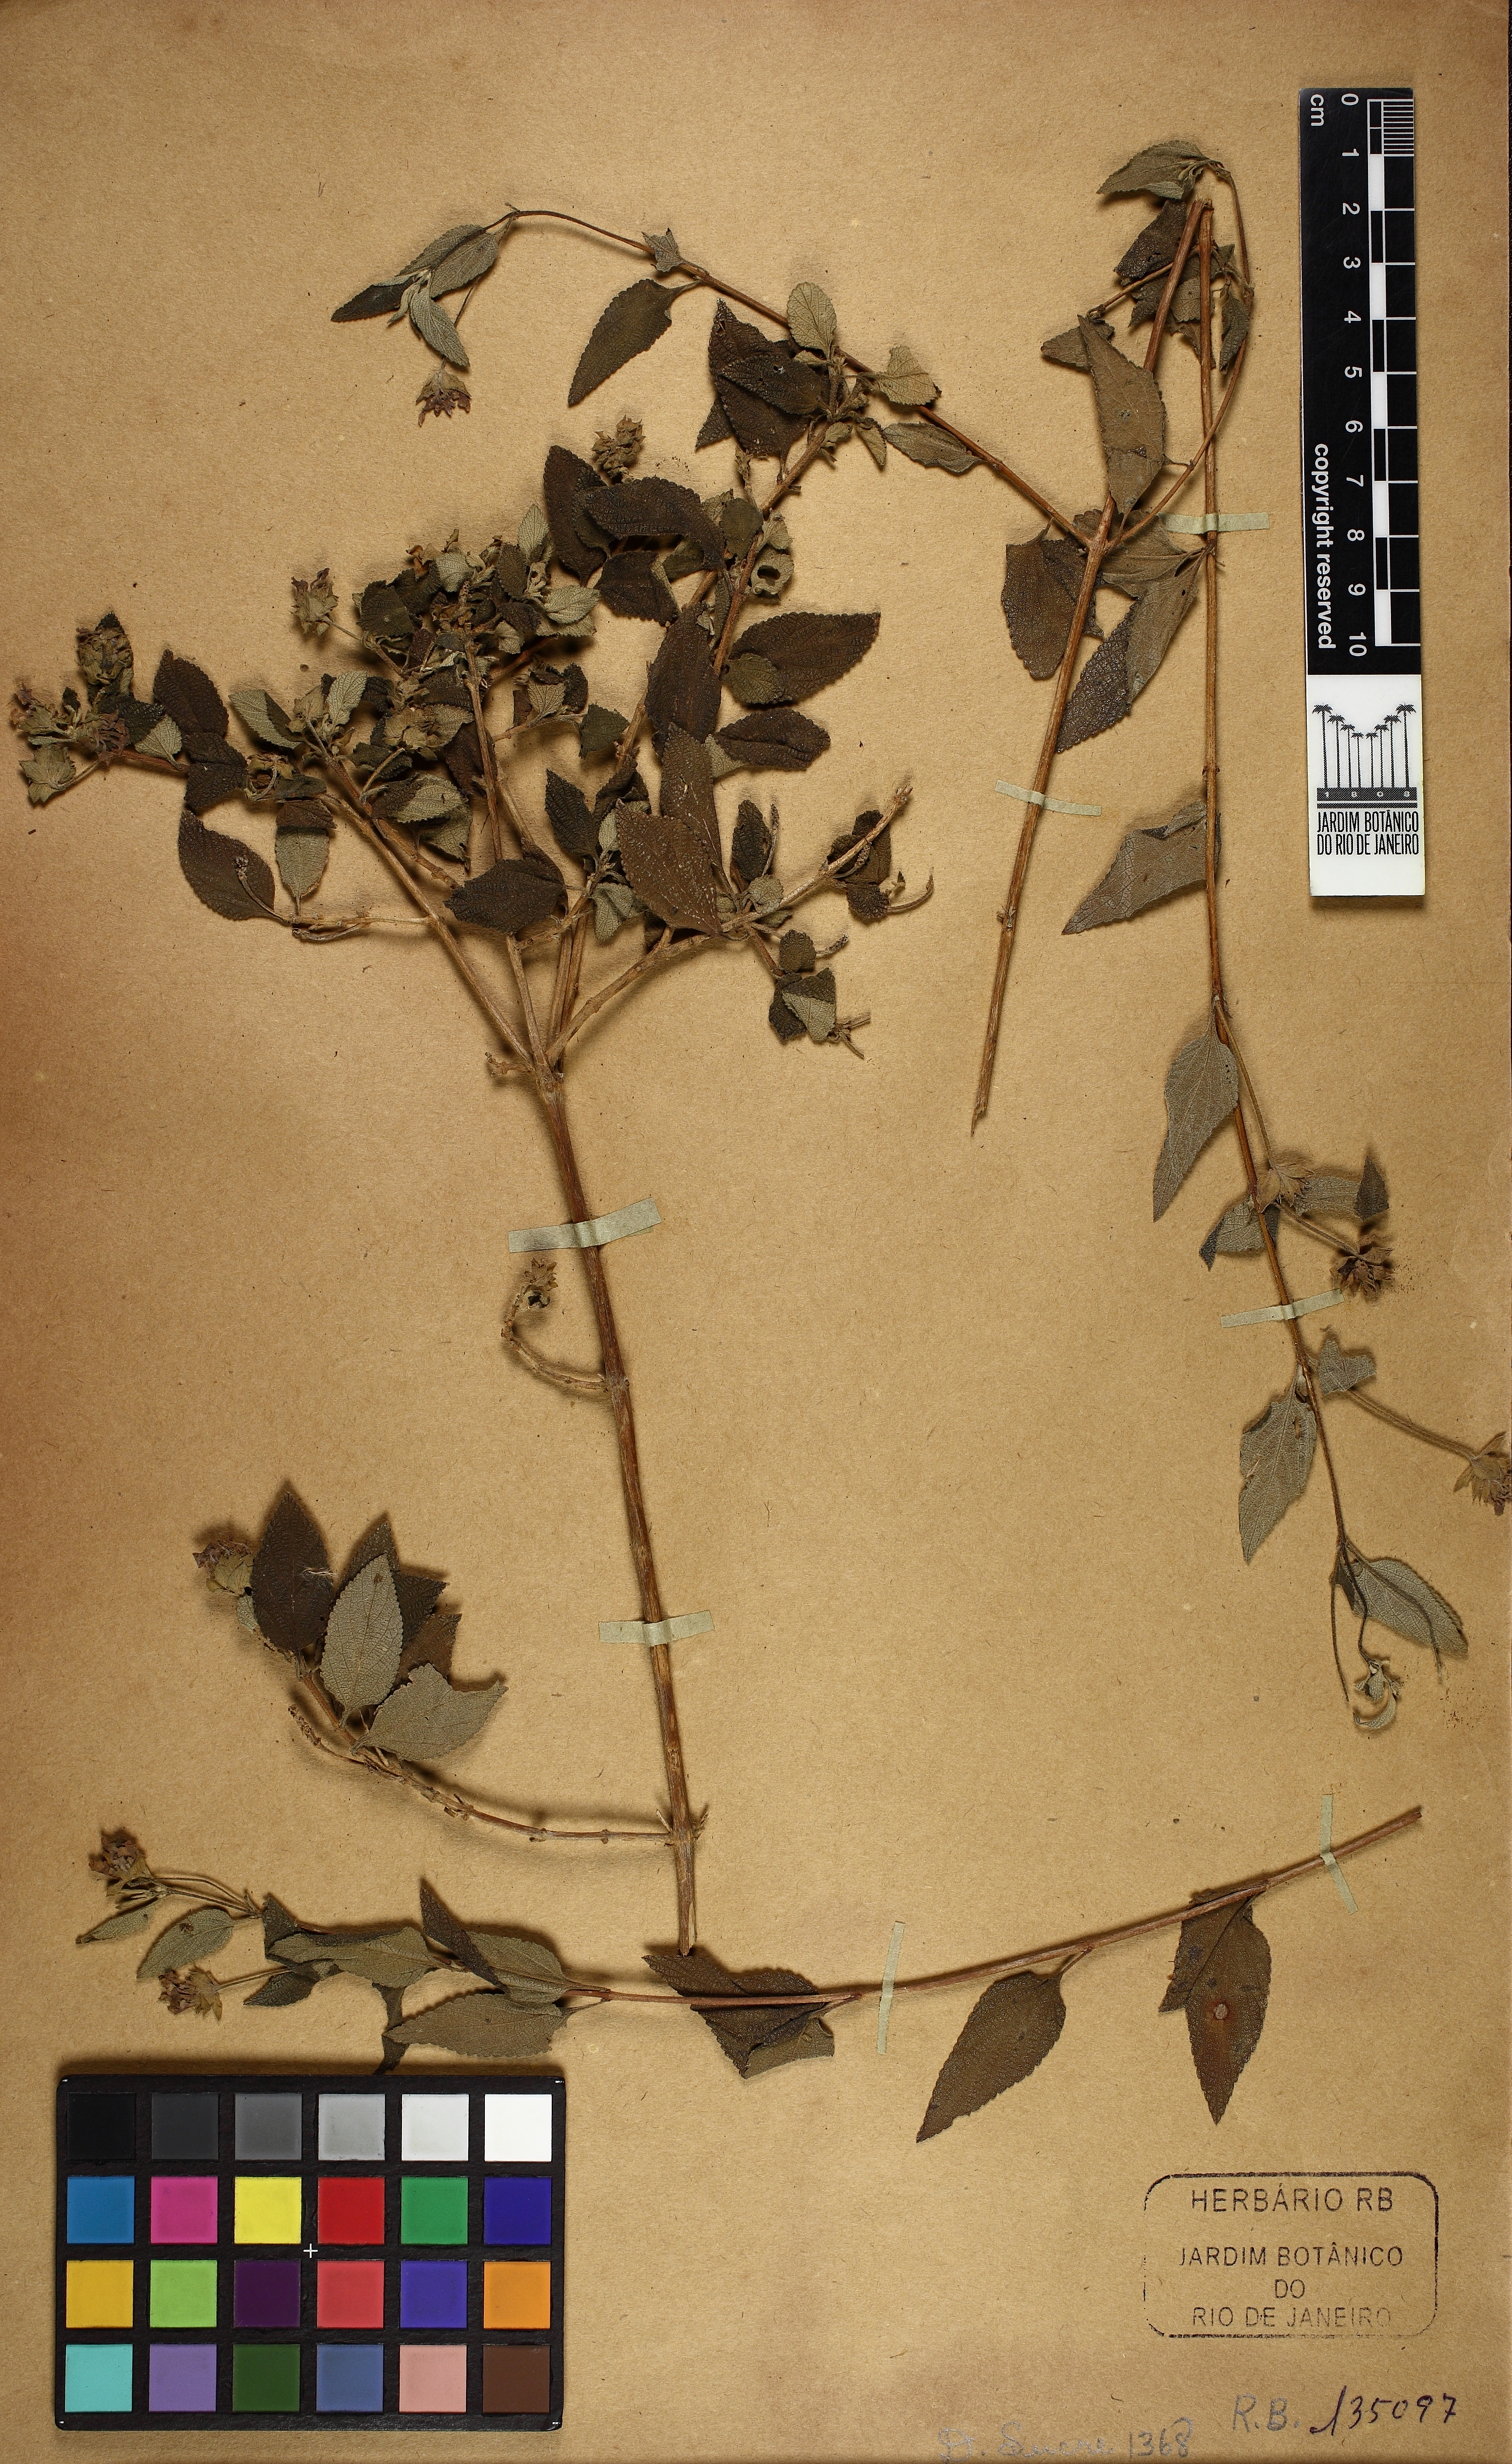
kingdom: Plantae
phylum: Tracheophyta
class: Magnoliopsida
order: Lamiales
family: Verbenaceae
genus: Lantana
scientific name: Lantana
